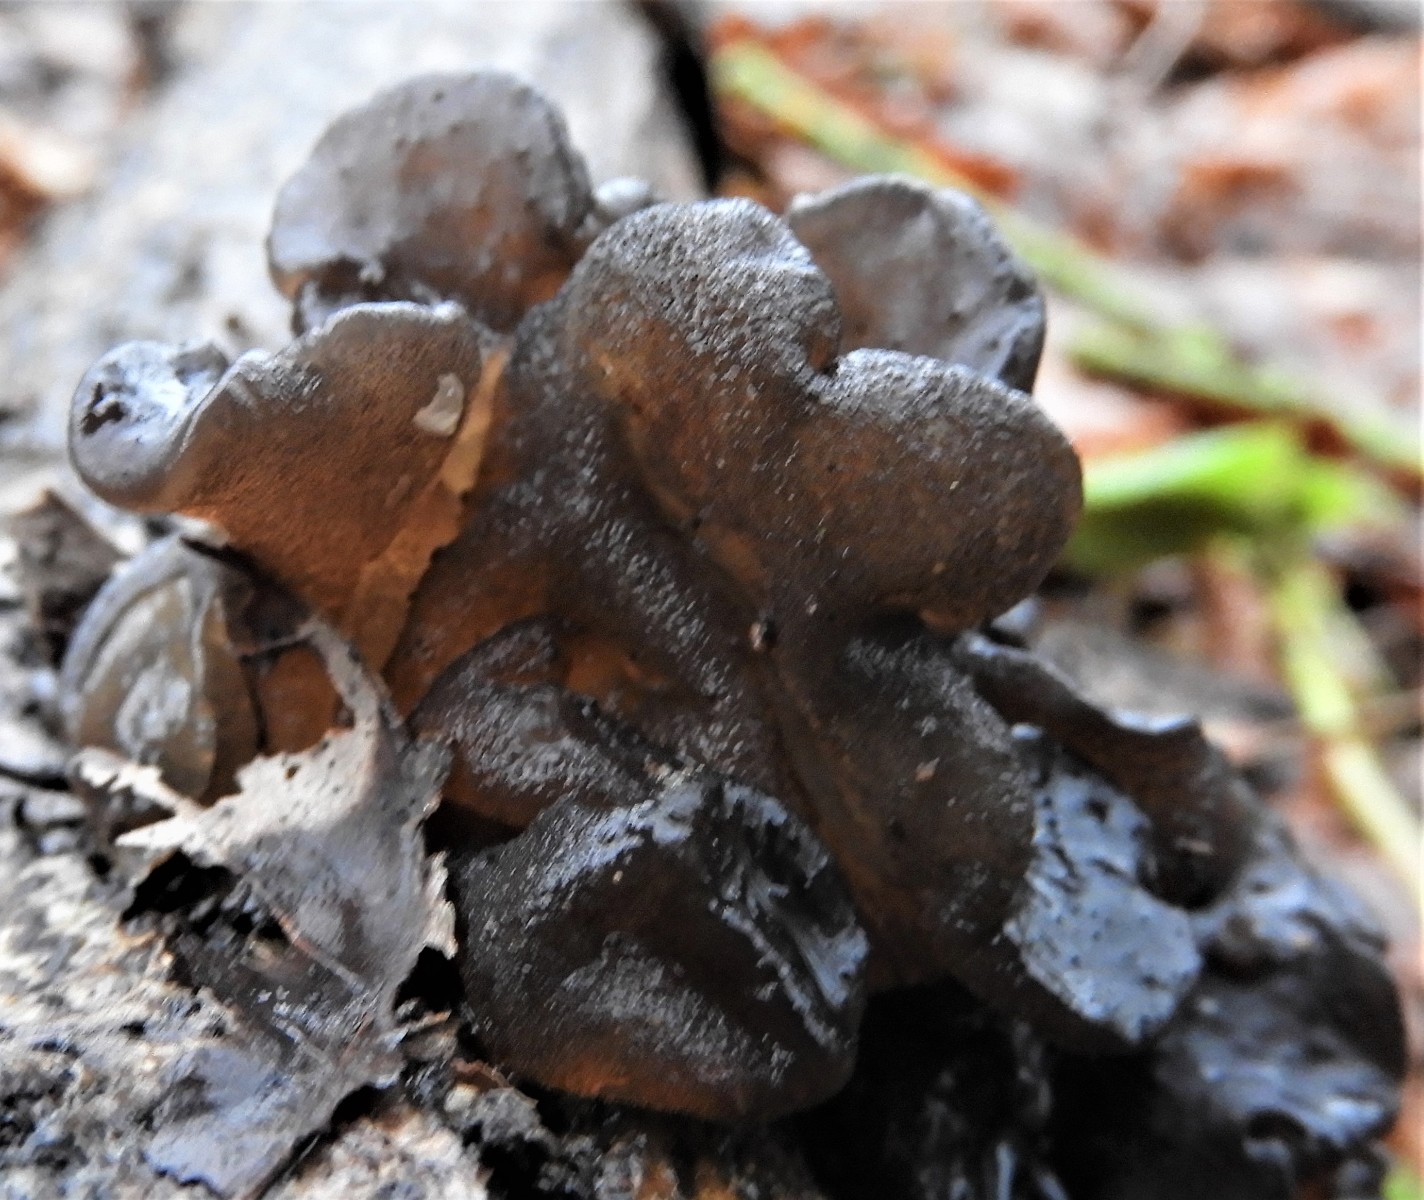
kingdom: Fungi
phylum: Basidiomycota
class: Agaricomycetes
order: Auriculariales
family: Auriculariaceae
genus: Exidia
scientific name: Exidia glandulosa
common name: ege-bævretop
